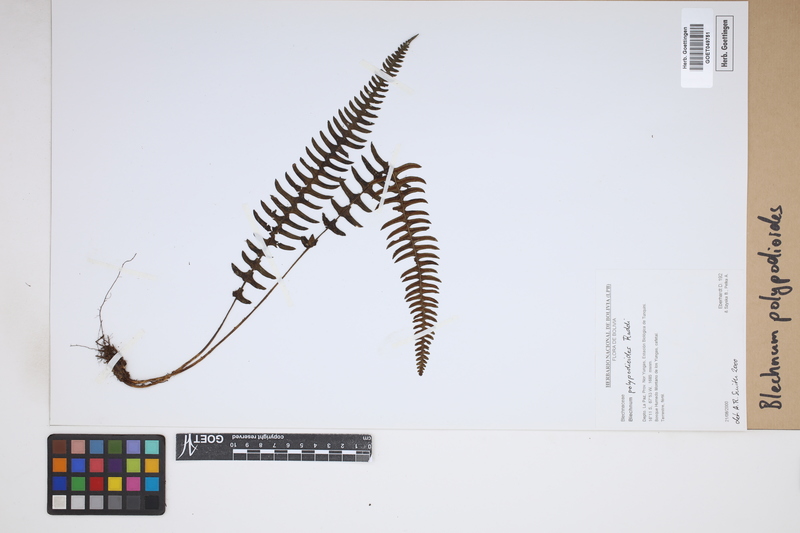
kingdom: Plantae
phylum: Tracheophyta
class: Polypodiopsida
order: Polypodiales
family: Blechnaceae
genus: Blechnum
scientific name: Blechnum polypodioides
